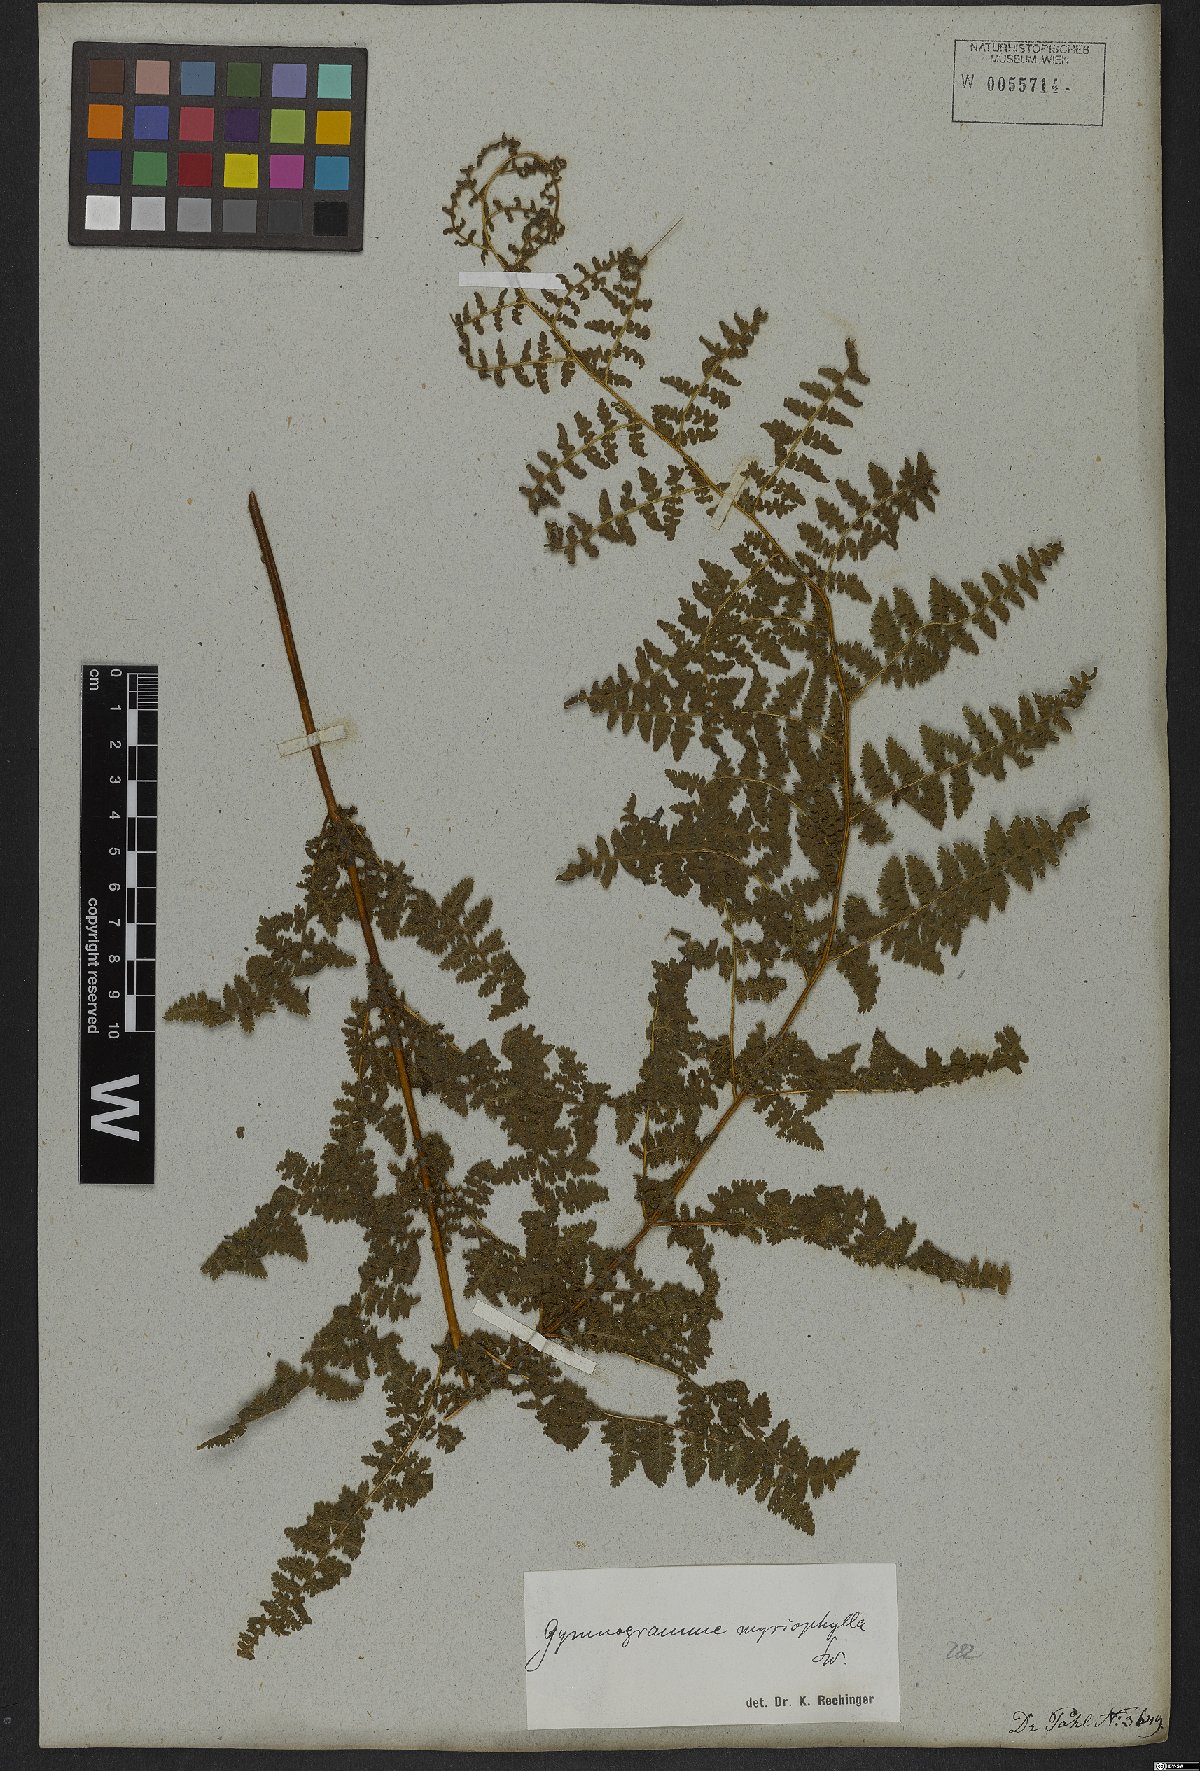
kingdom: Plantae
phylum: Tracheophyta
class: Polypodiopsida
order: Polypodiales
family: Pteridaceae
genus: Tryonia
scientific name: Tryonia myriophylla
